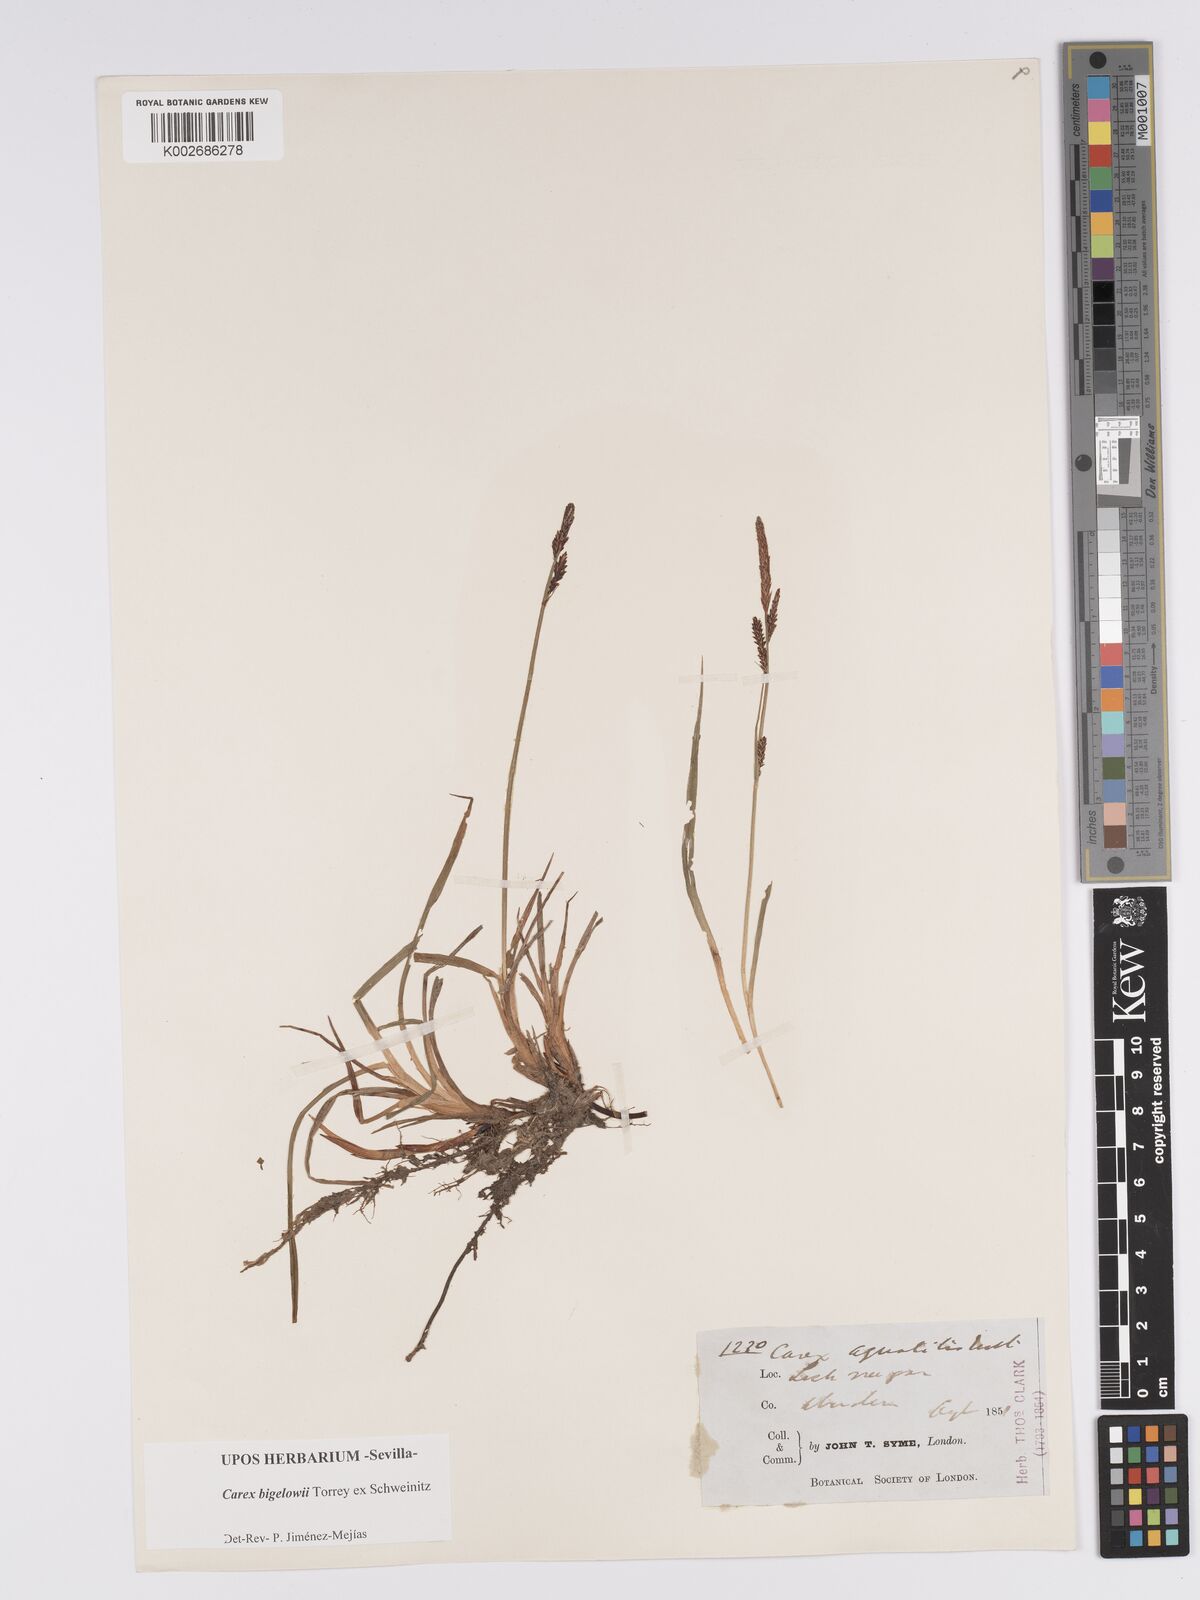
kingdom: Plantae
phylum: Tracheophyta
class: Liliopsida
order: Poales
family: Cyperaceae
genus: Carex
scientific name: Carex bigelowii
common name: Stiff sedge
